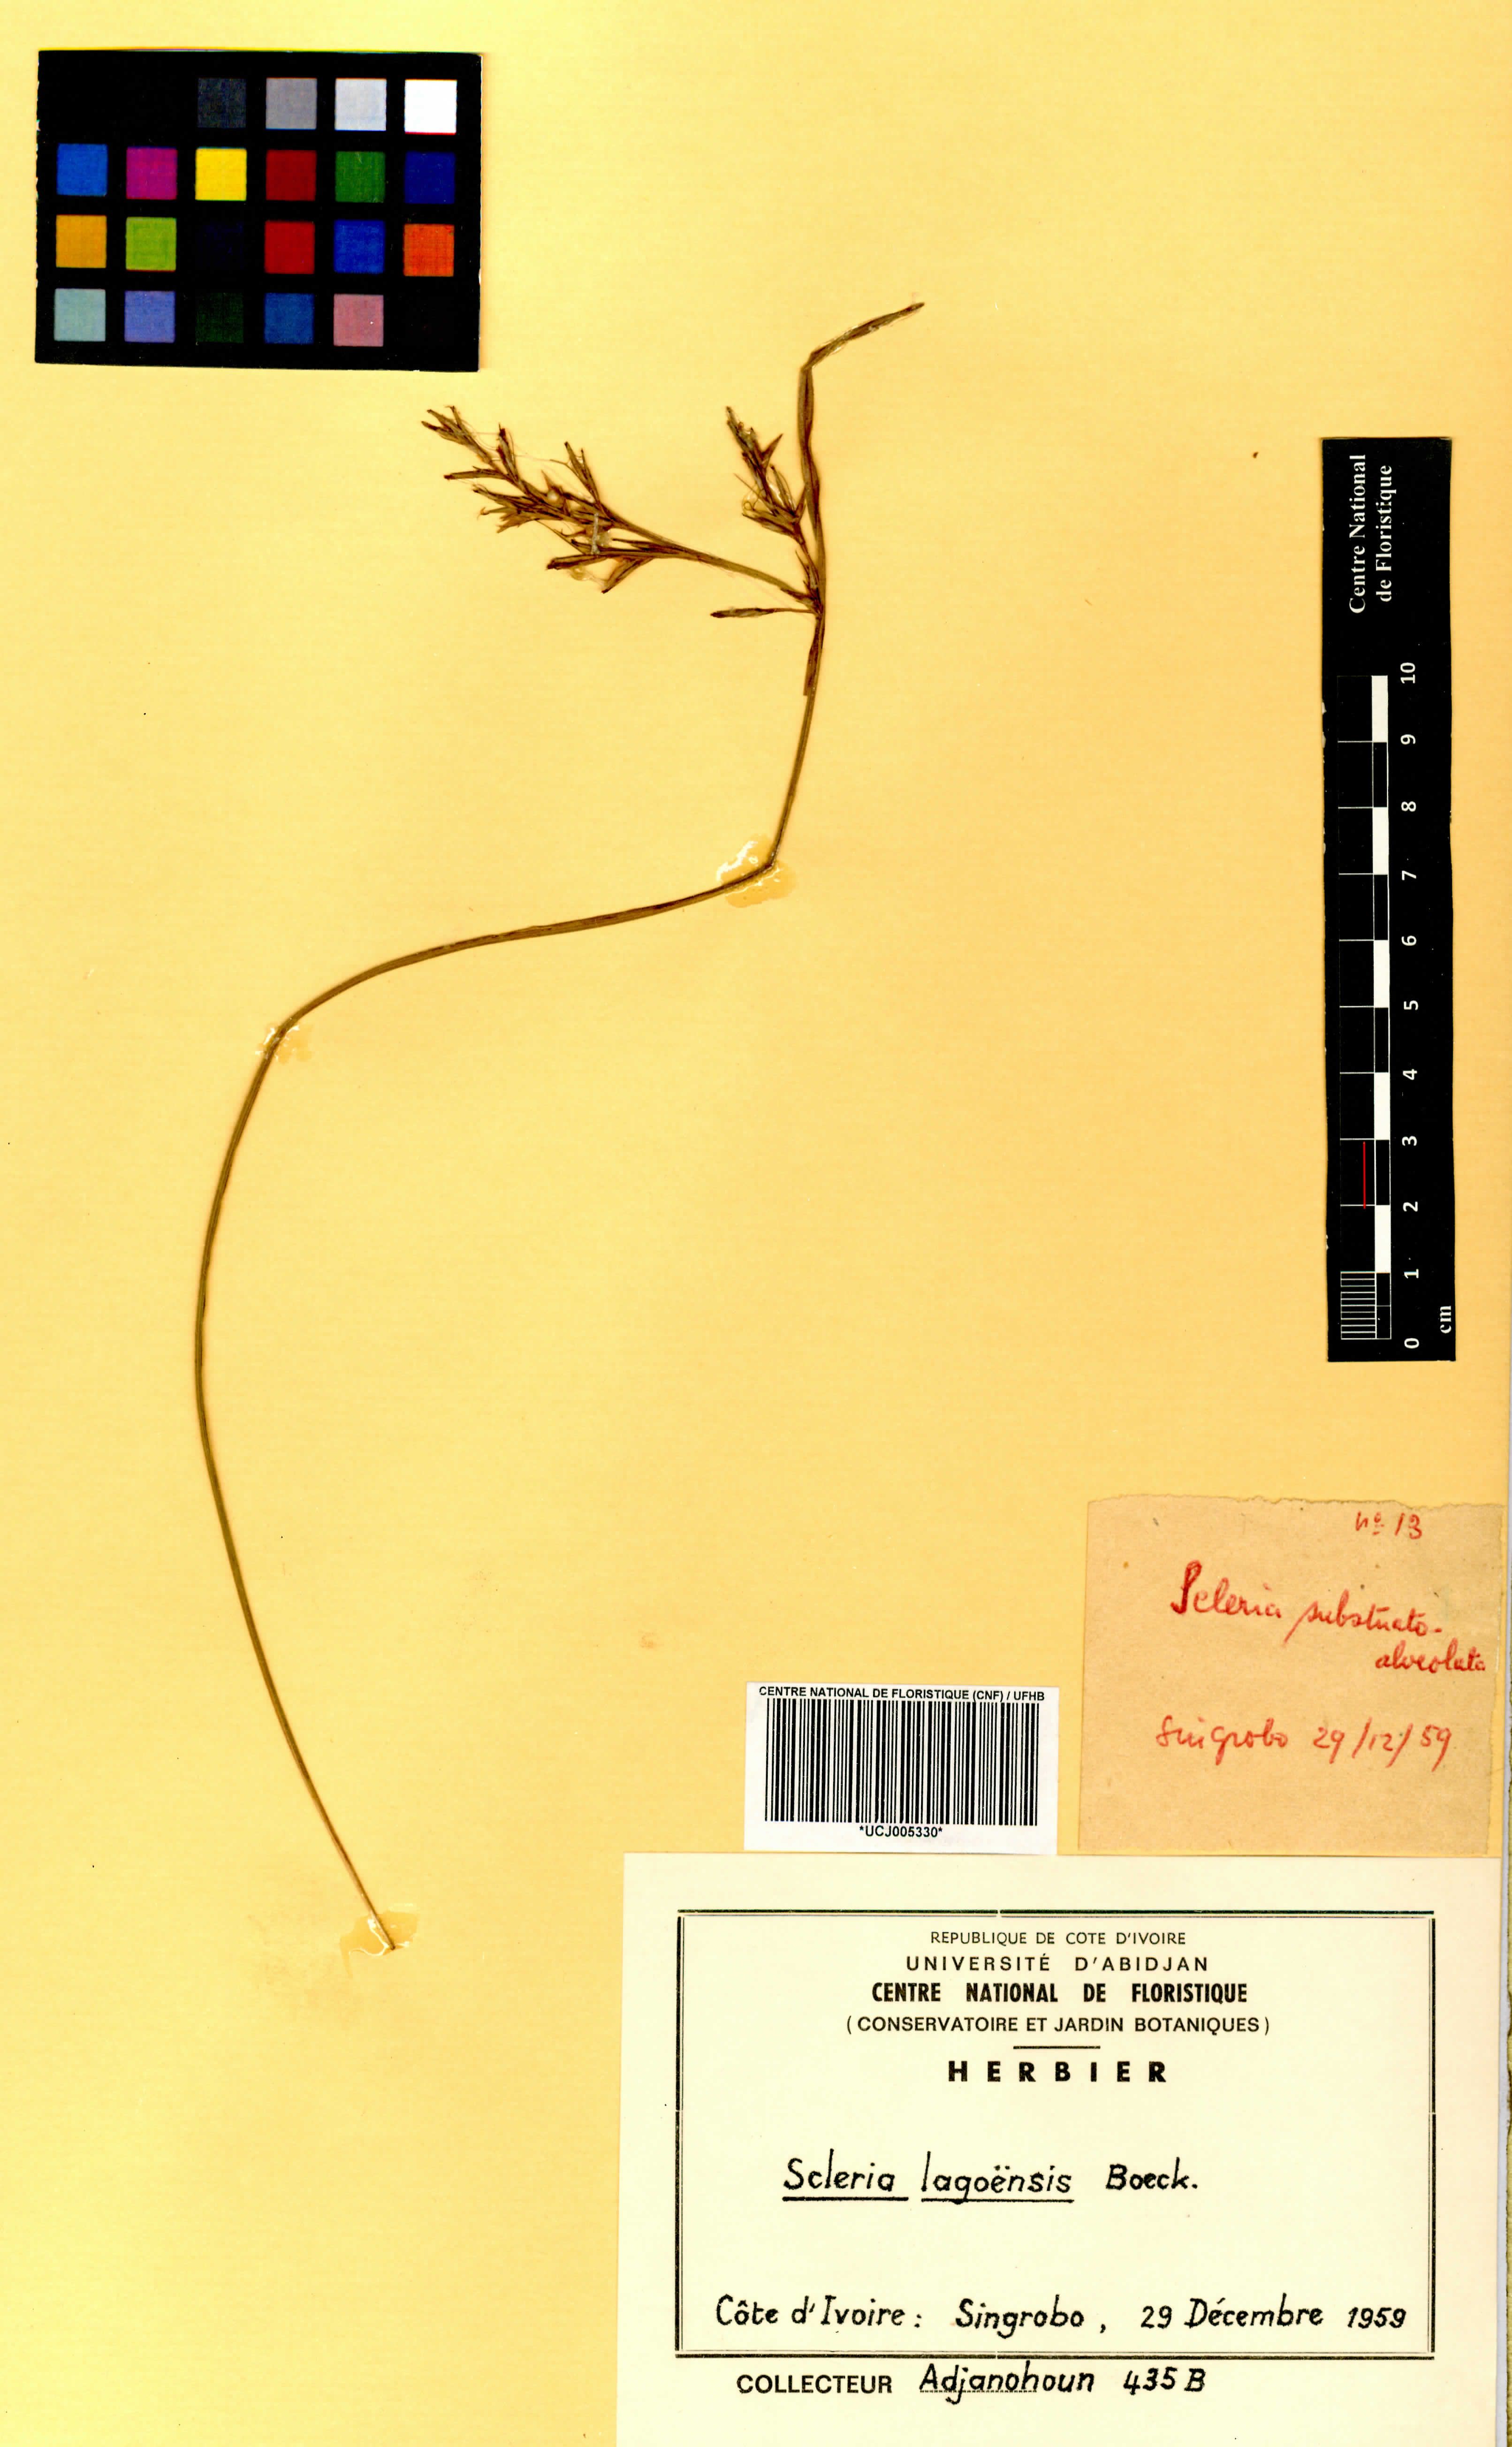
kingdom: Plantae
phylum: Tracheophyta
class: Liliopsida
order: Poales
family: Cyperaceae
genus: Scleria
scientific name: Scleria lagoensis
